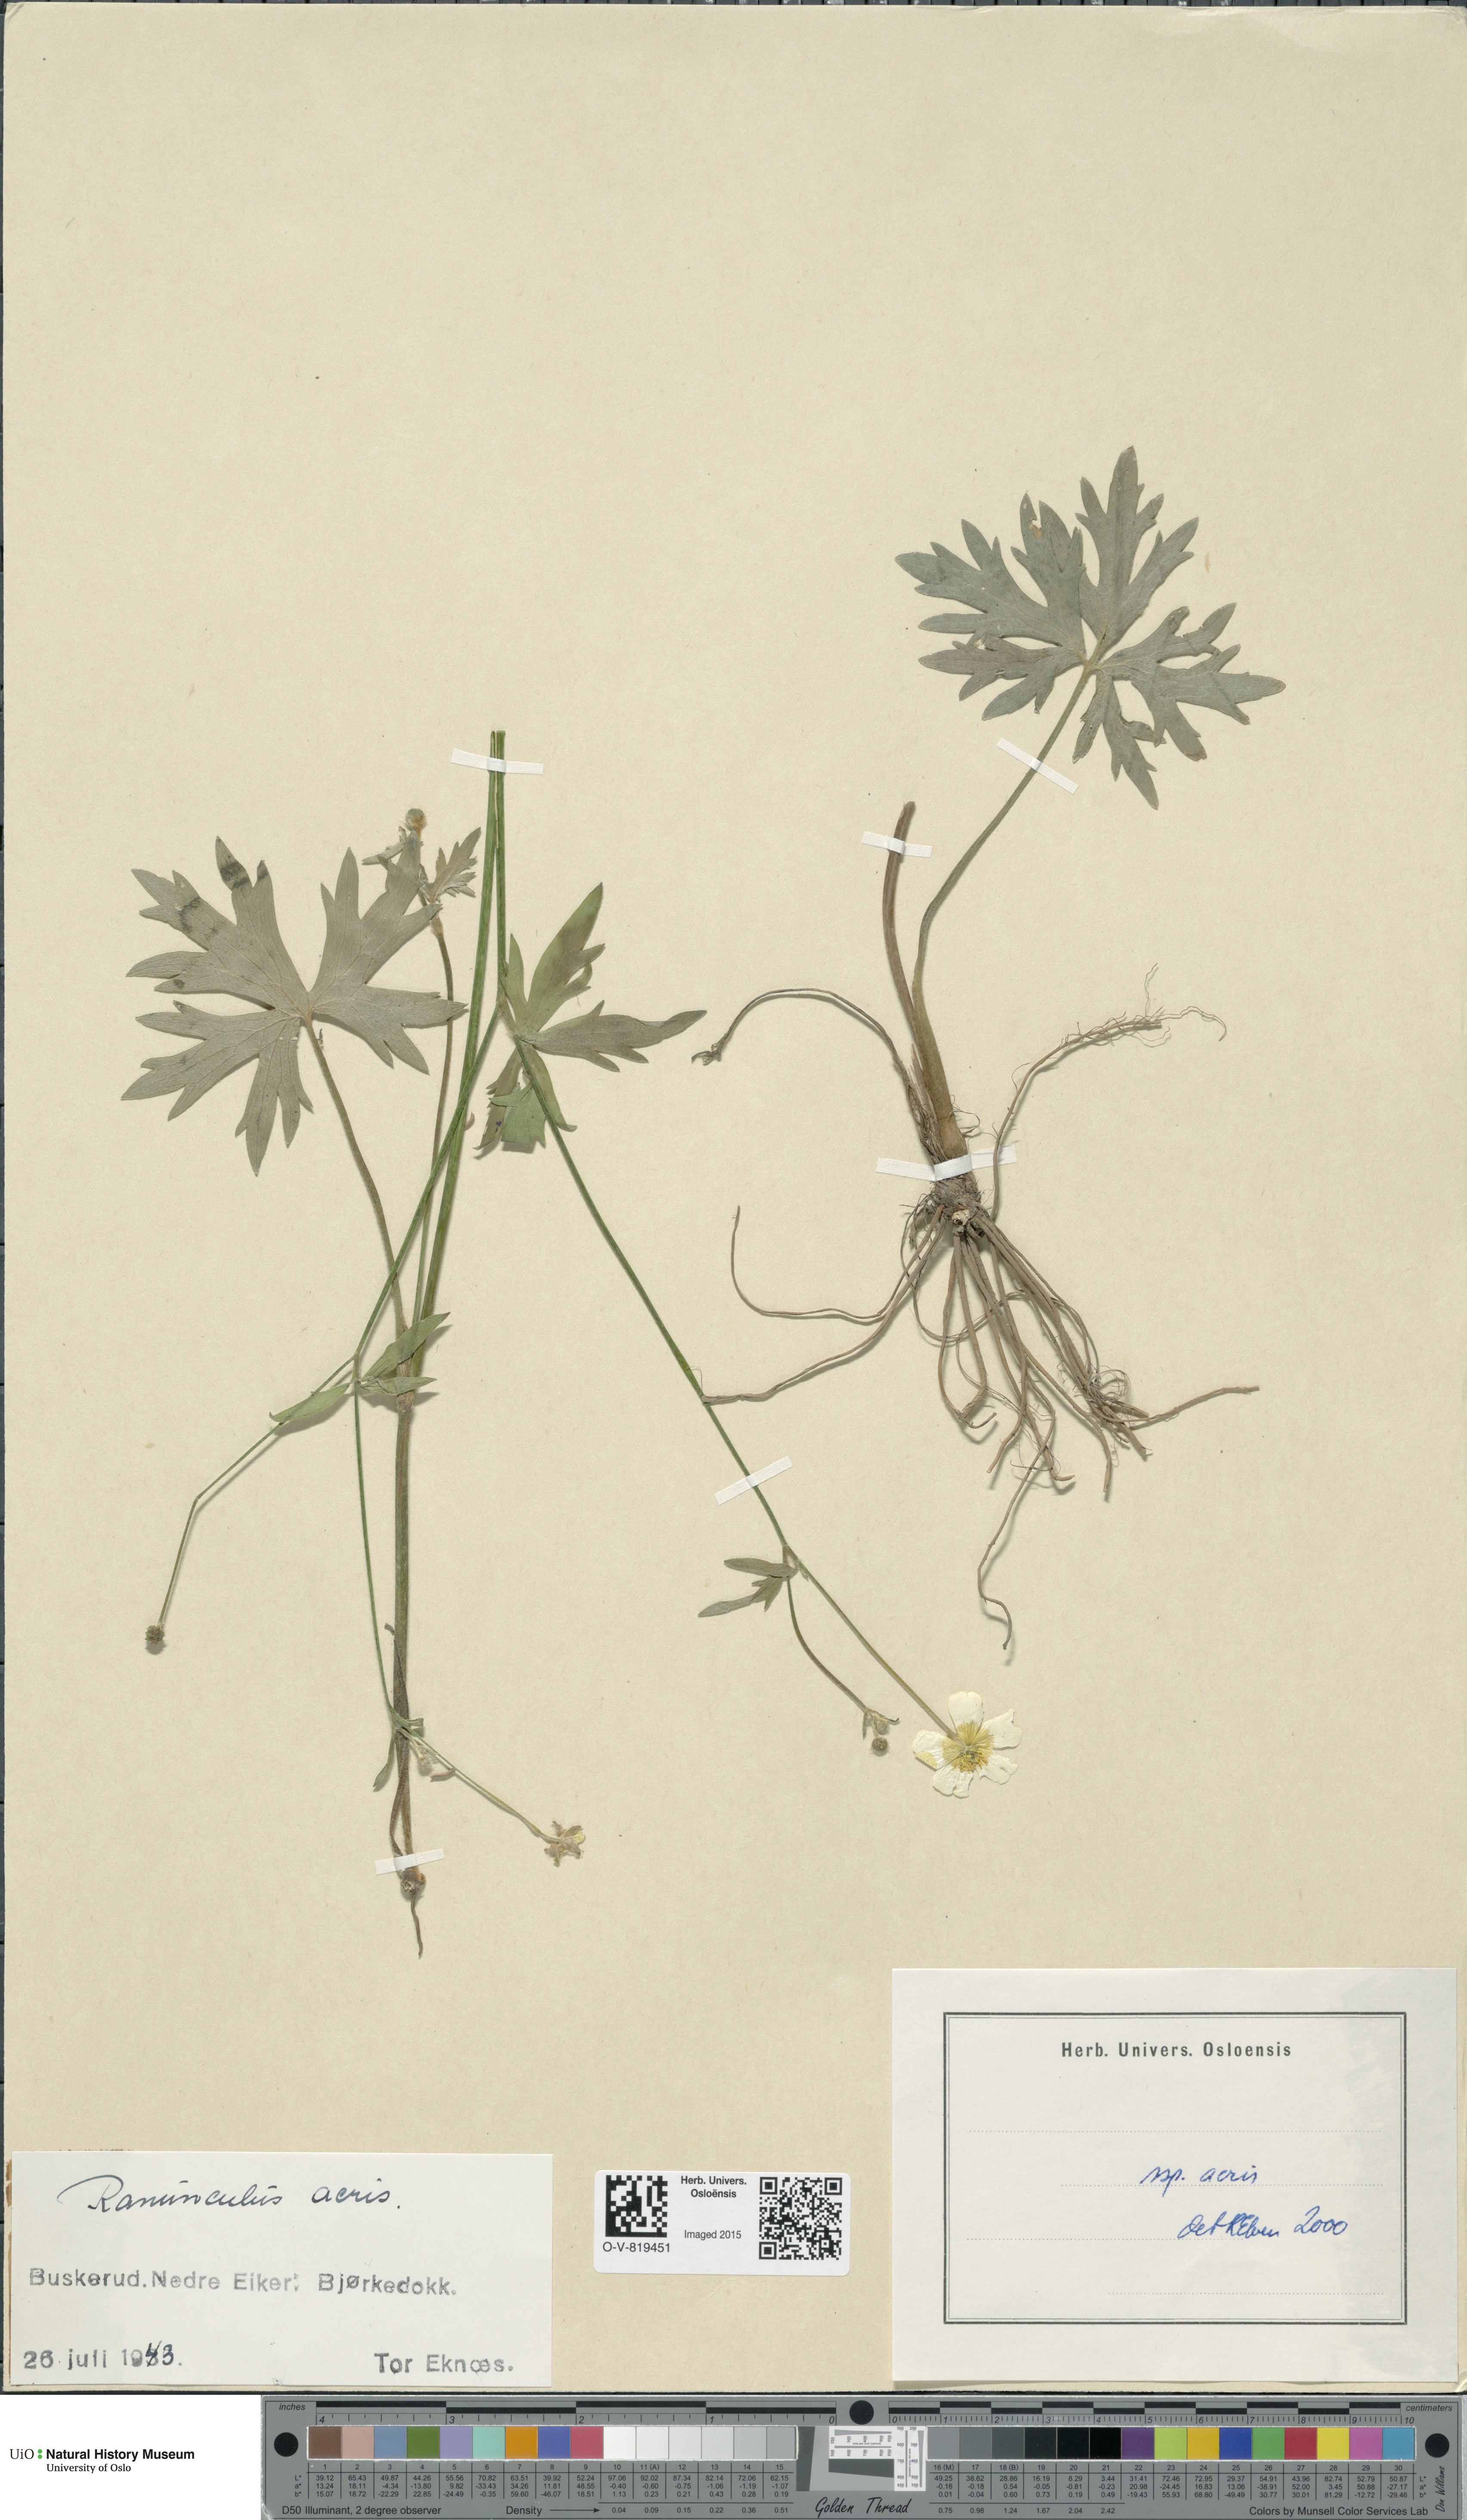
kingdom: Plantae
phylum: Tracheophyta
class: Magnoliopsida
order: Ranunculales
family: Ranunculaceae
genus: Ranunculus
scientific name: Ranunculus acris
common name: Meadow buttercup
